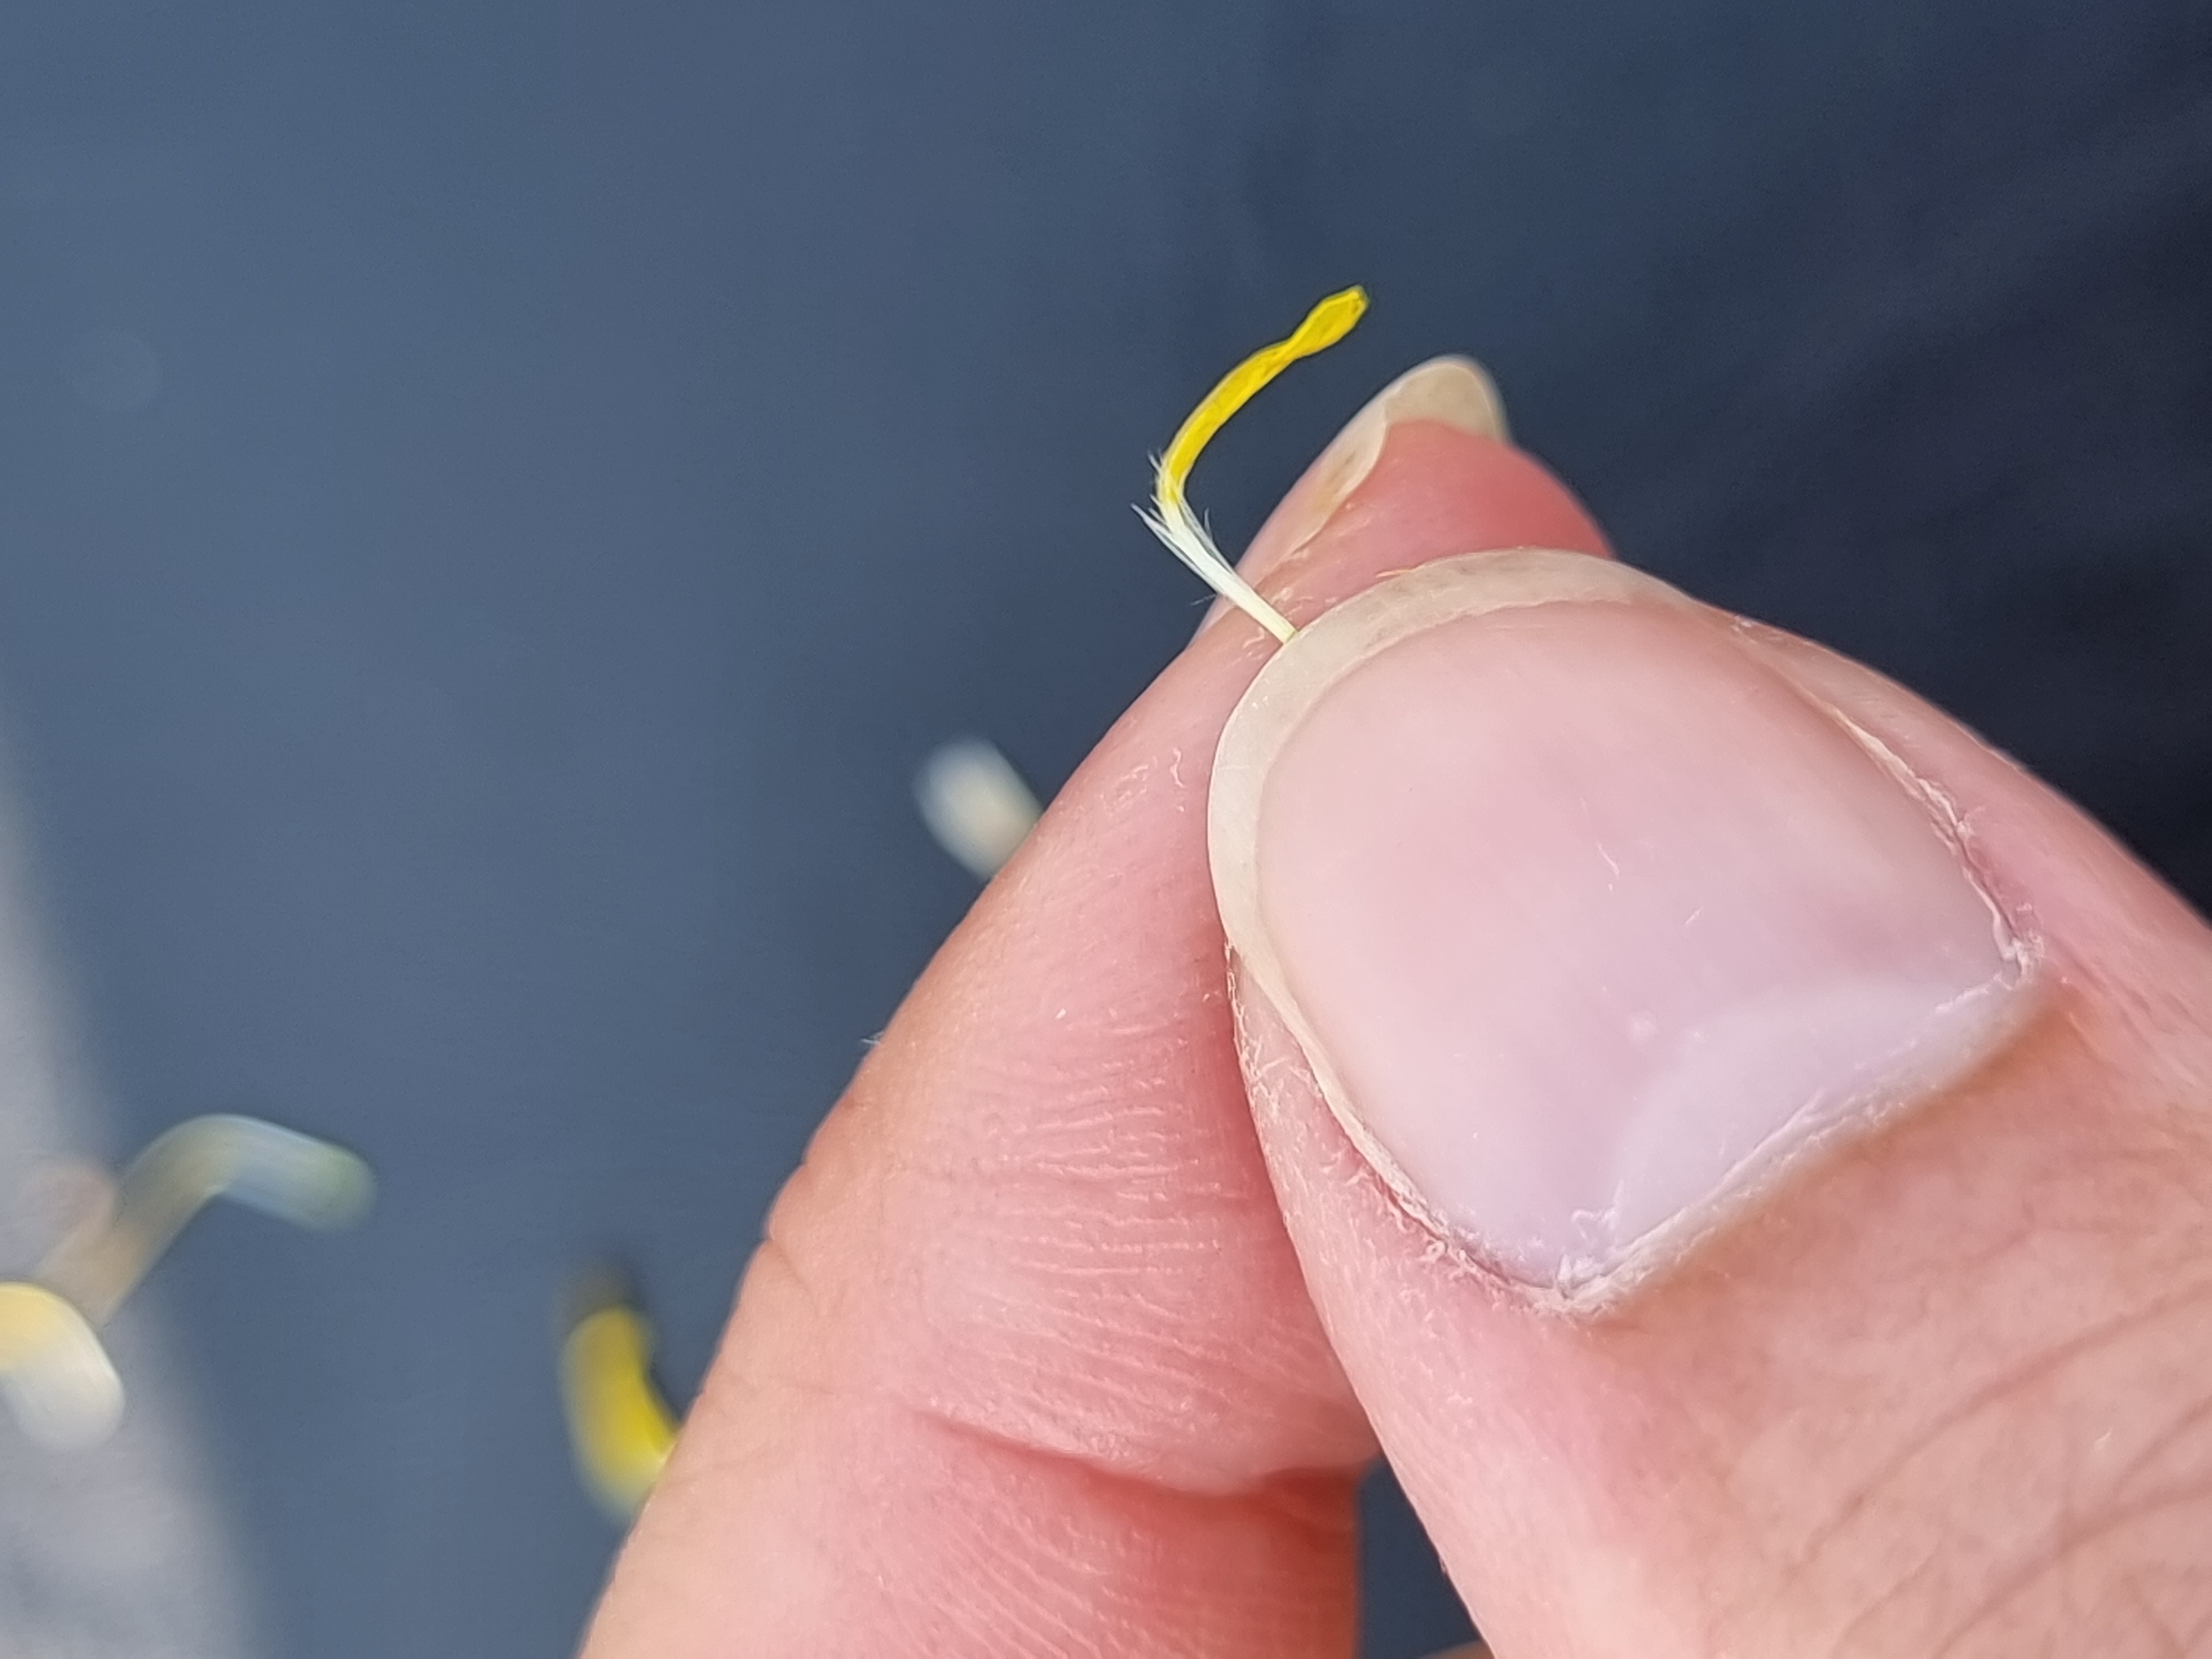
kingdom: Plantae
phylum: Tracheophyta
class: Magnoliopsida
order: Asterales
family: Asteraceae
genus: Thrincia
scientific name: Thrincia saxatilis
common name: Hundesalat
